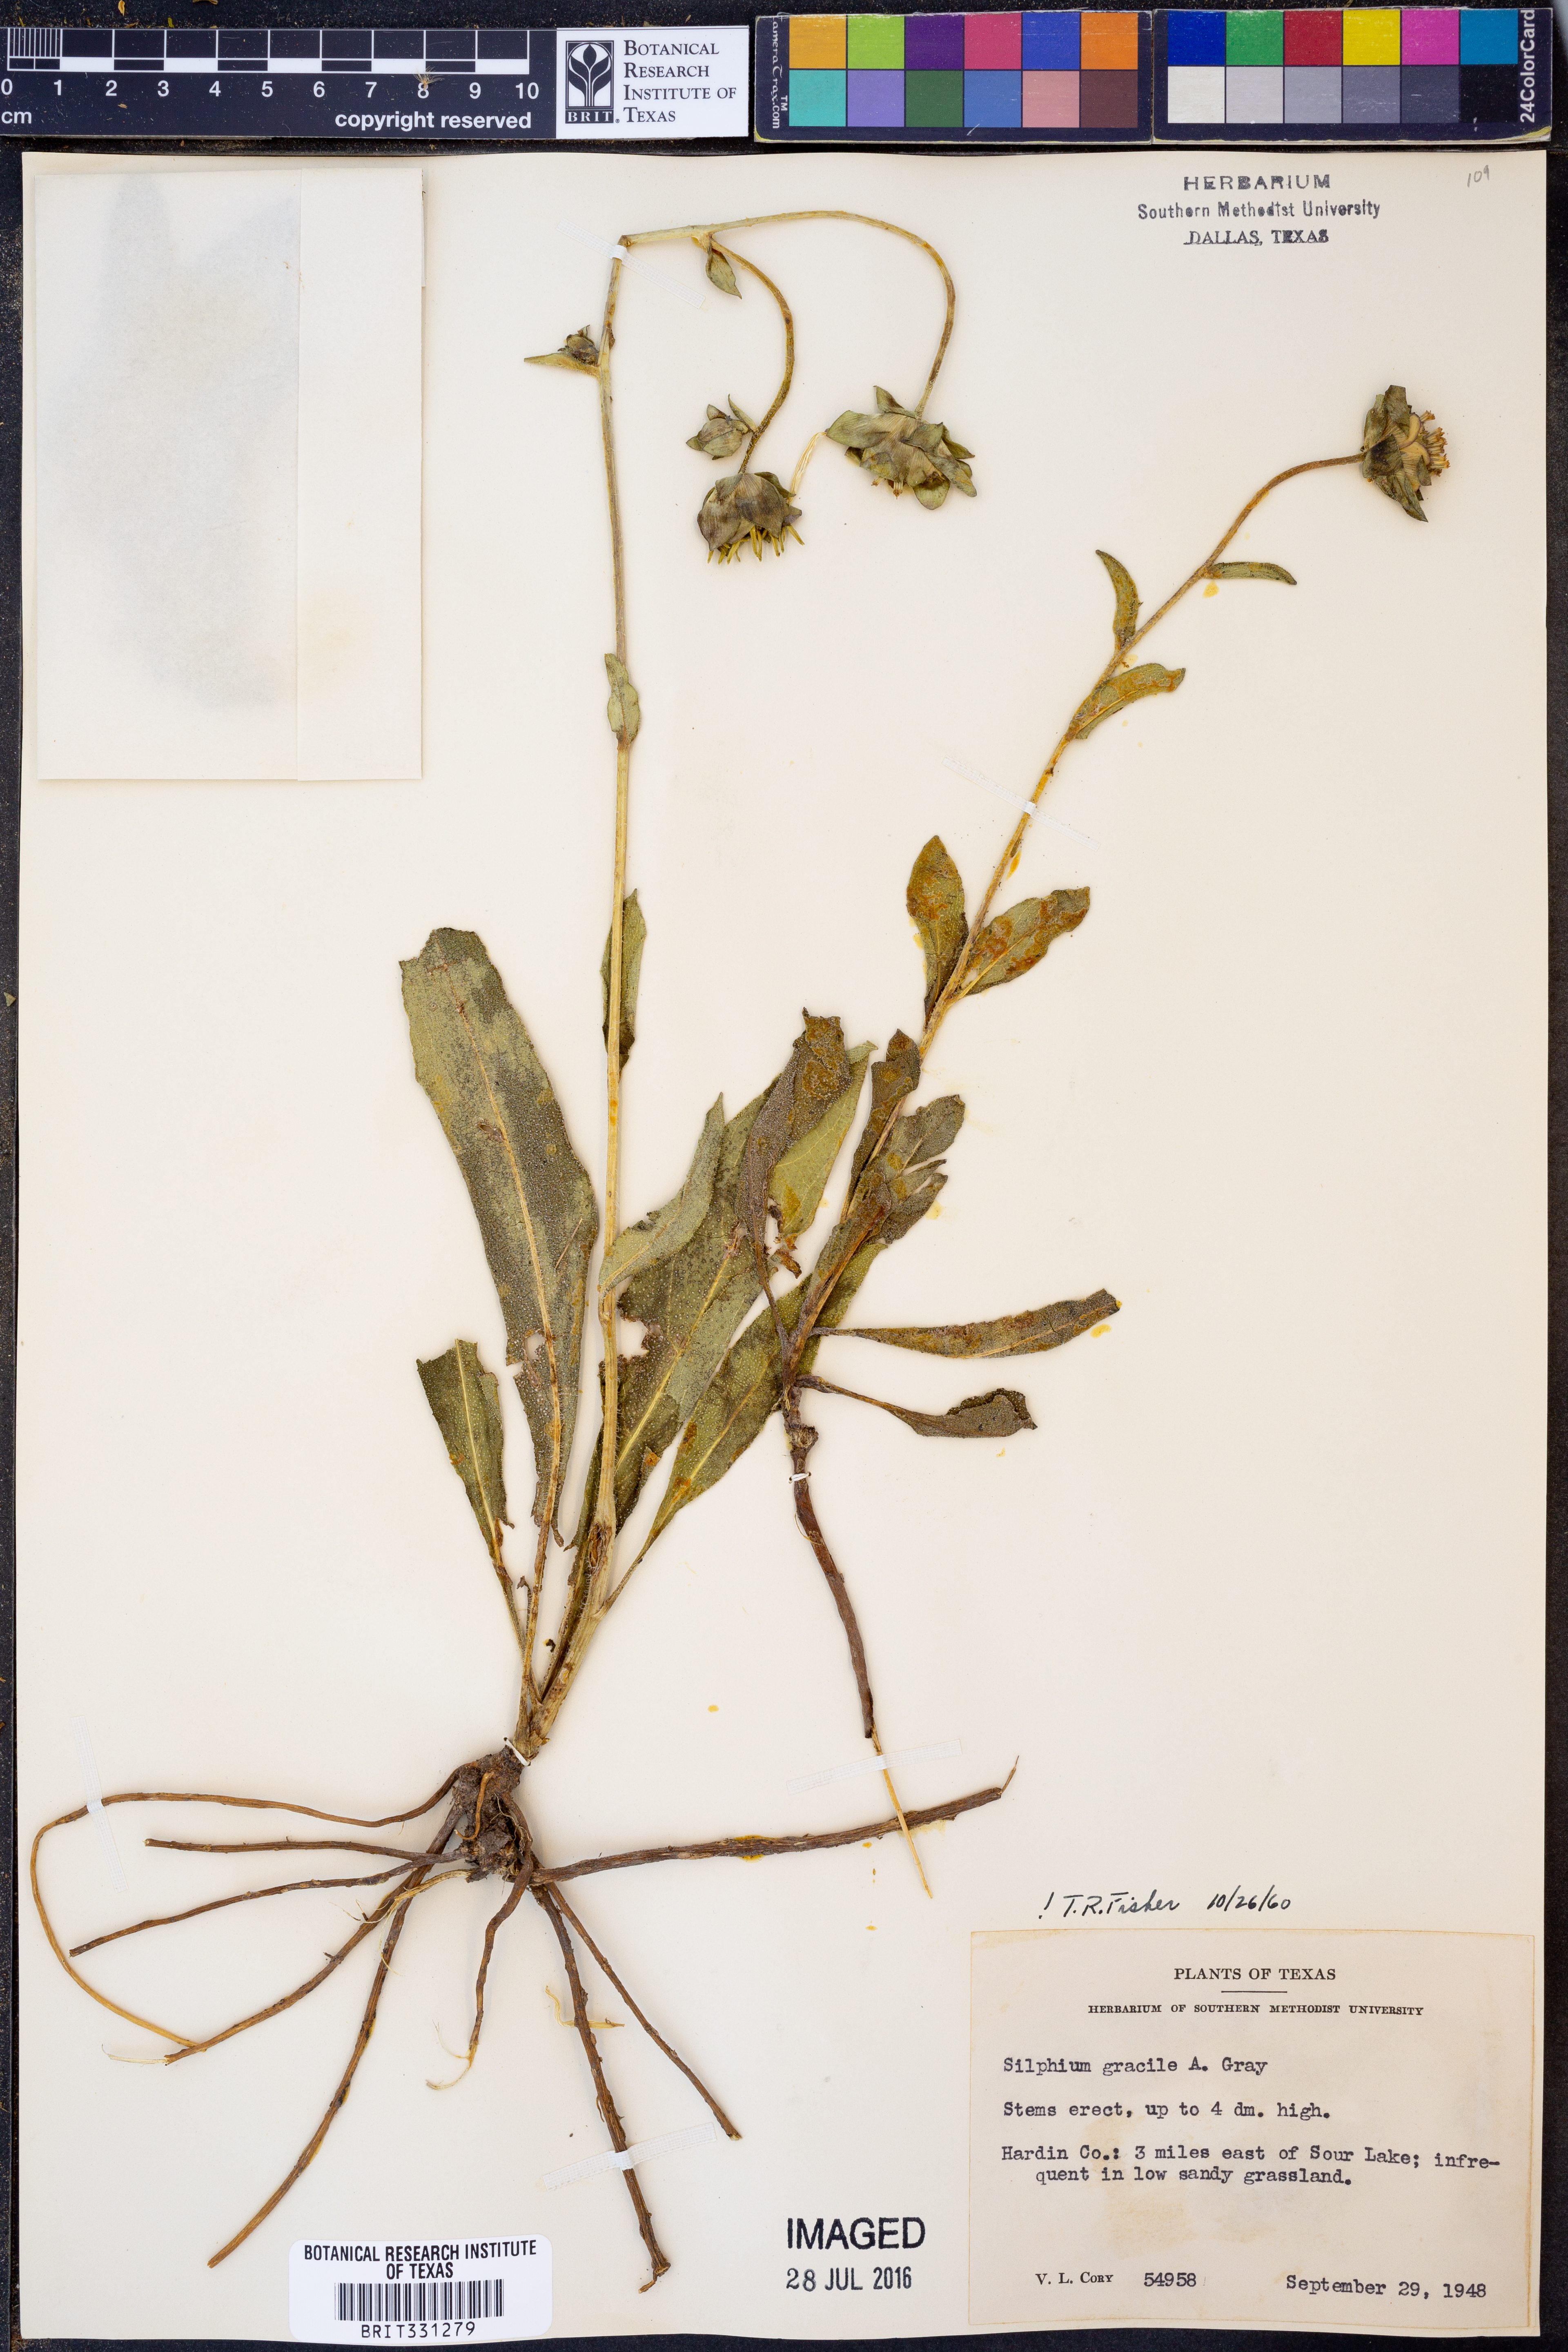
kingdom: Plantae
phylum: Tracheophyta
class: Magnoliopsida
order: Asterales
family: Asteraceae
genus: Silphium
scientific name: Silphium radula
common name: Roughleaf rosinweed
